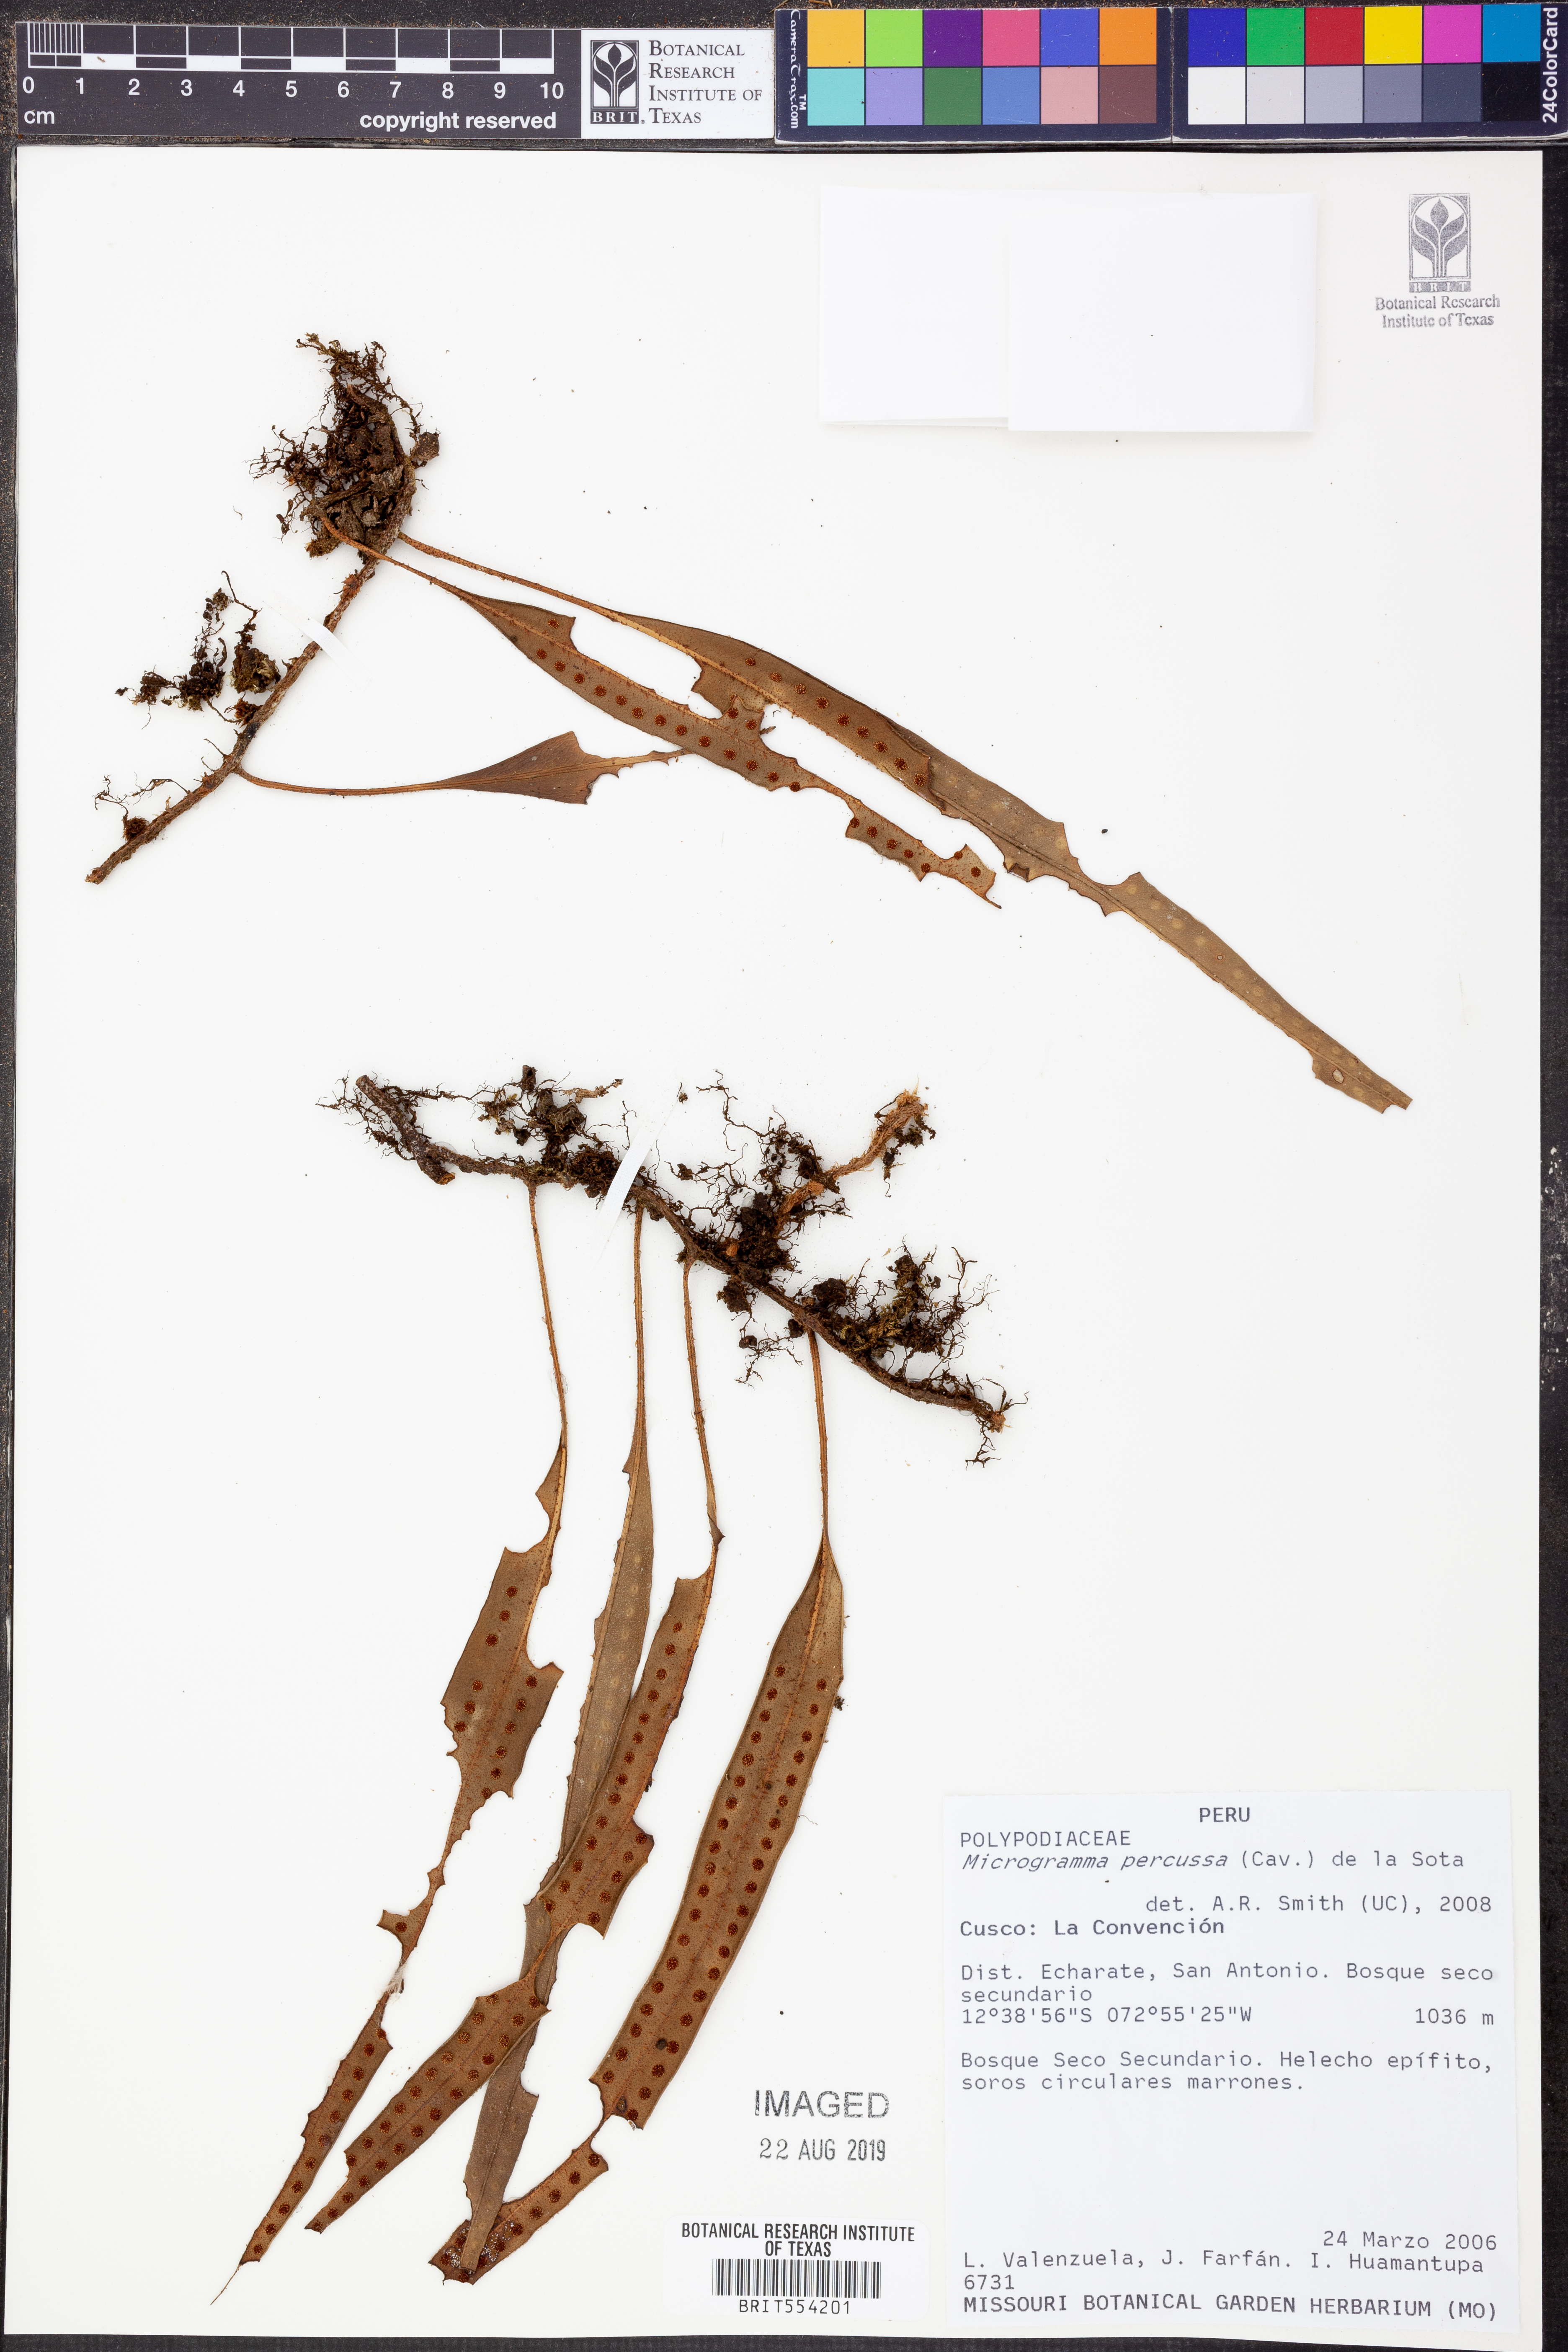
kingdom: Plantae
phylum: Tracheophyta
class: Polypodiopsida
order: Polypodiales
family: Polypodiaceae
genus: Microgramma
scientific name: Microgramma percussa
